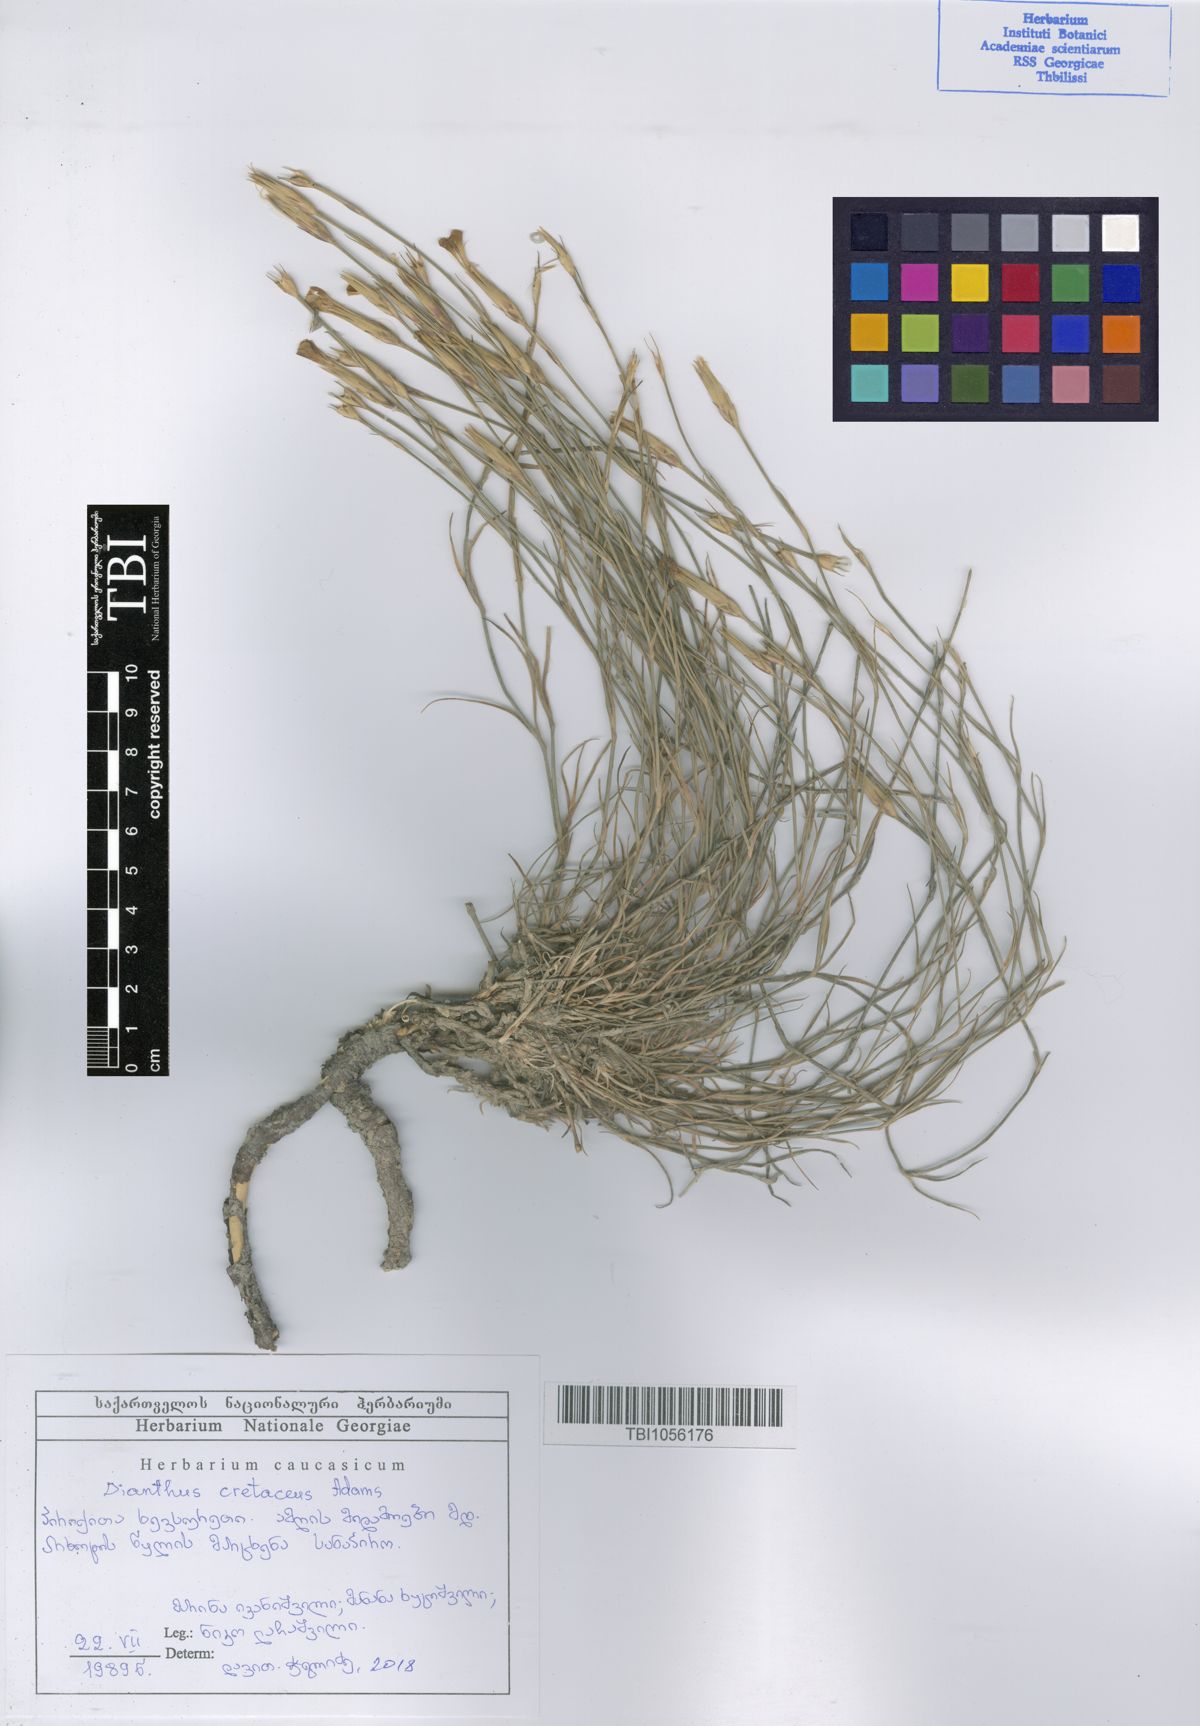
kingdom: Plantae
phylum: Tracheophyta
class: Magnoliopsida
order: Caryophyllales
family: Caryophyllaceae
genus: Dianthus
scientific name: Dianthus cretaceus
